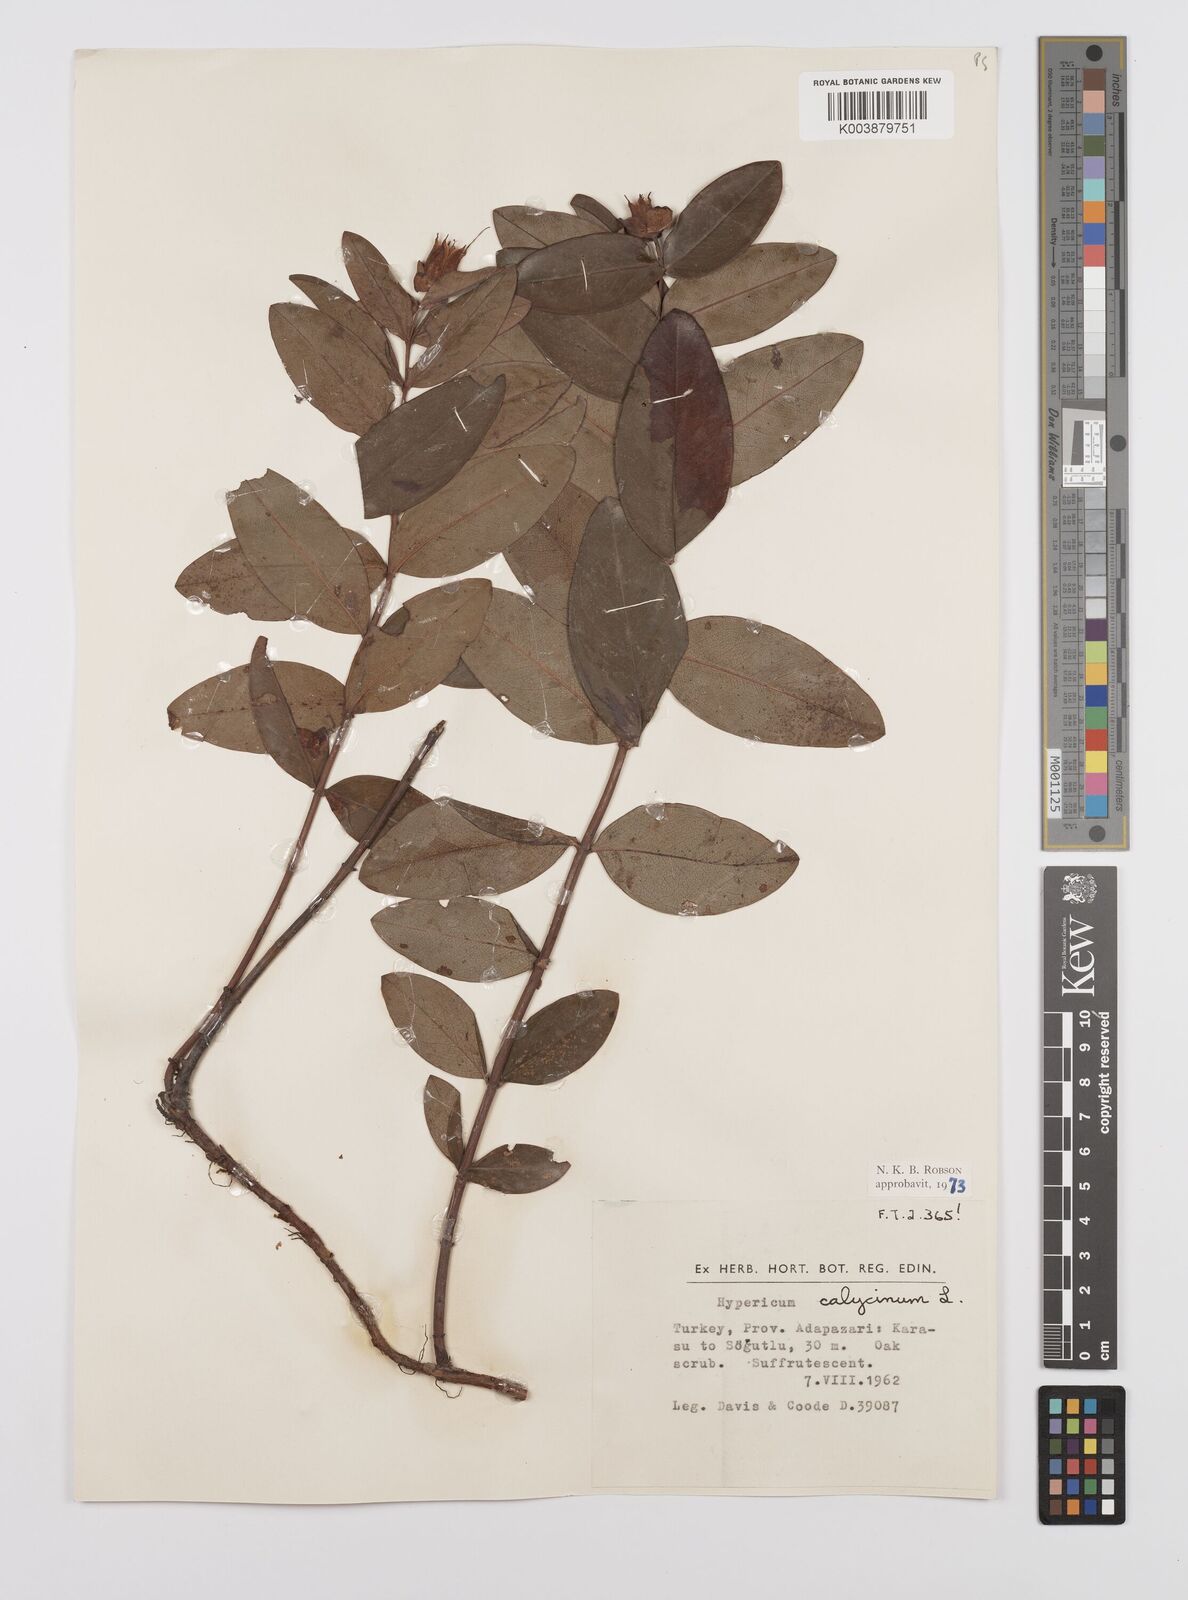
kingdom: Plantae
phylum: Tracheophyta
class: Magnoliopsida
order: Malpighiales
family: Hypericaceae
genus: Hypericum
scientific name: Hypericum calycinum
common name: Rose-of-sharon
